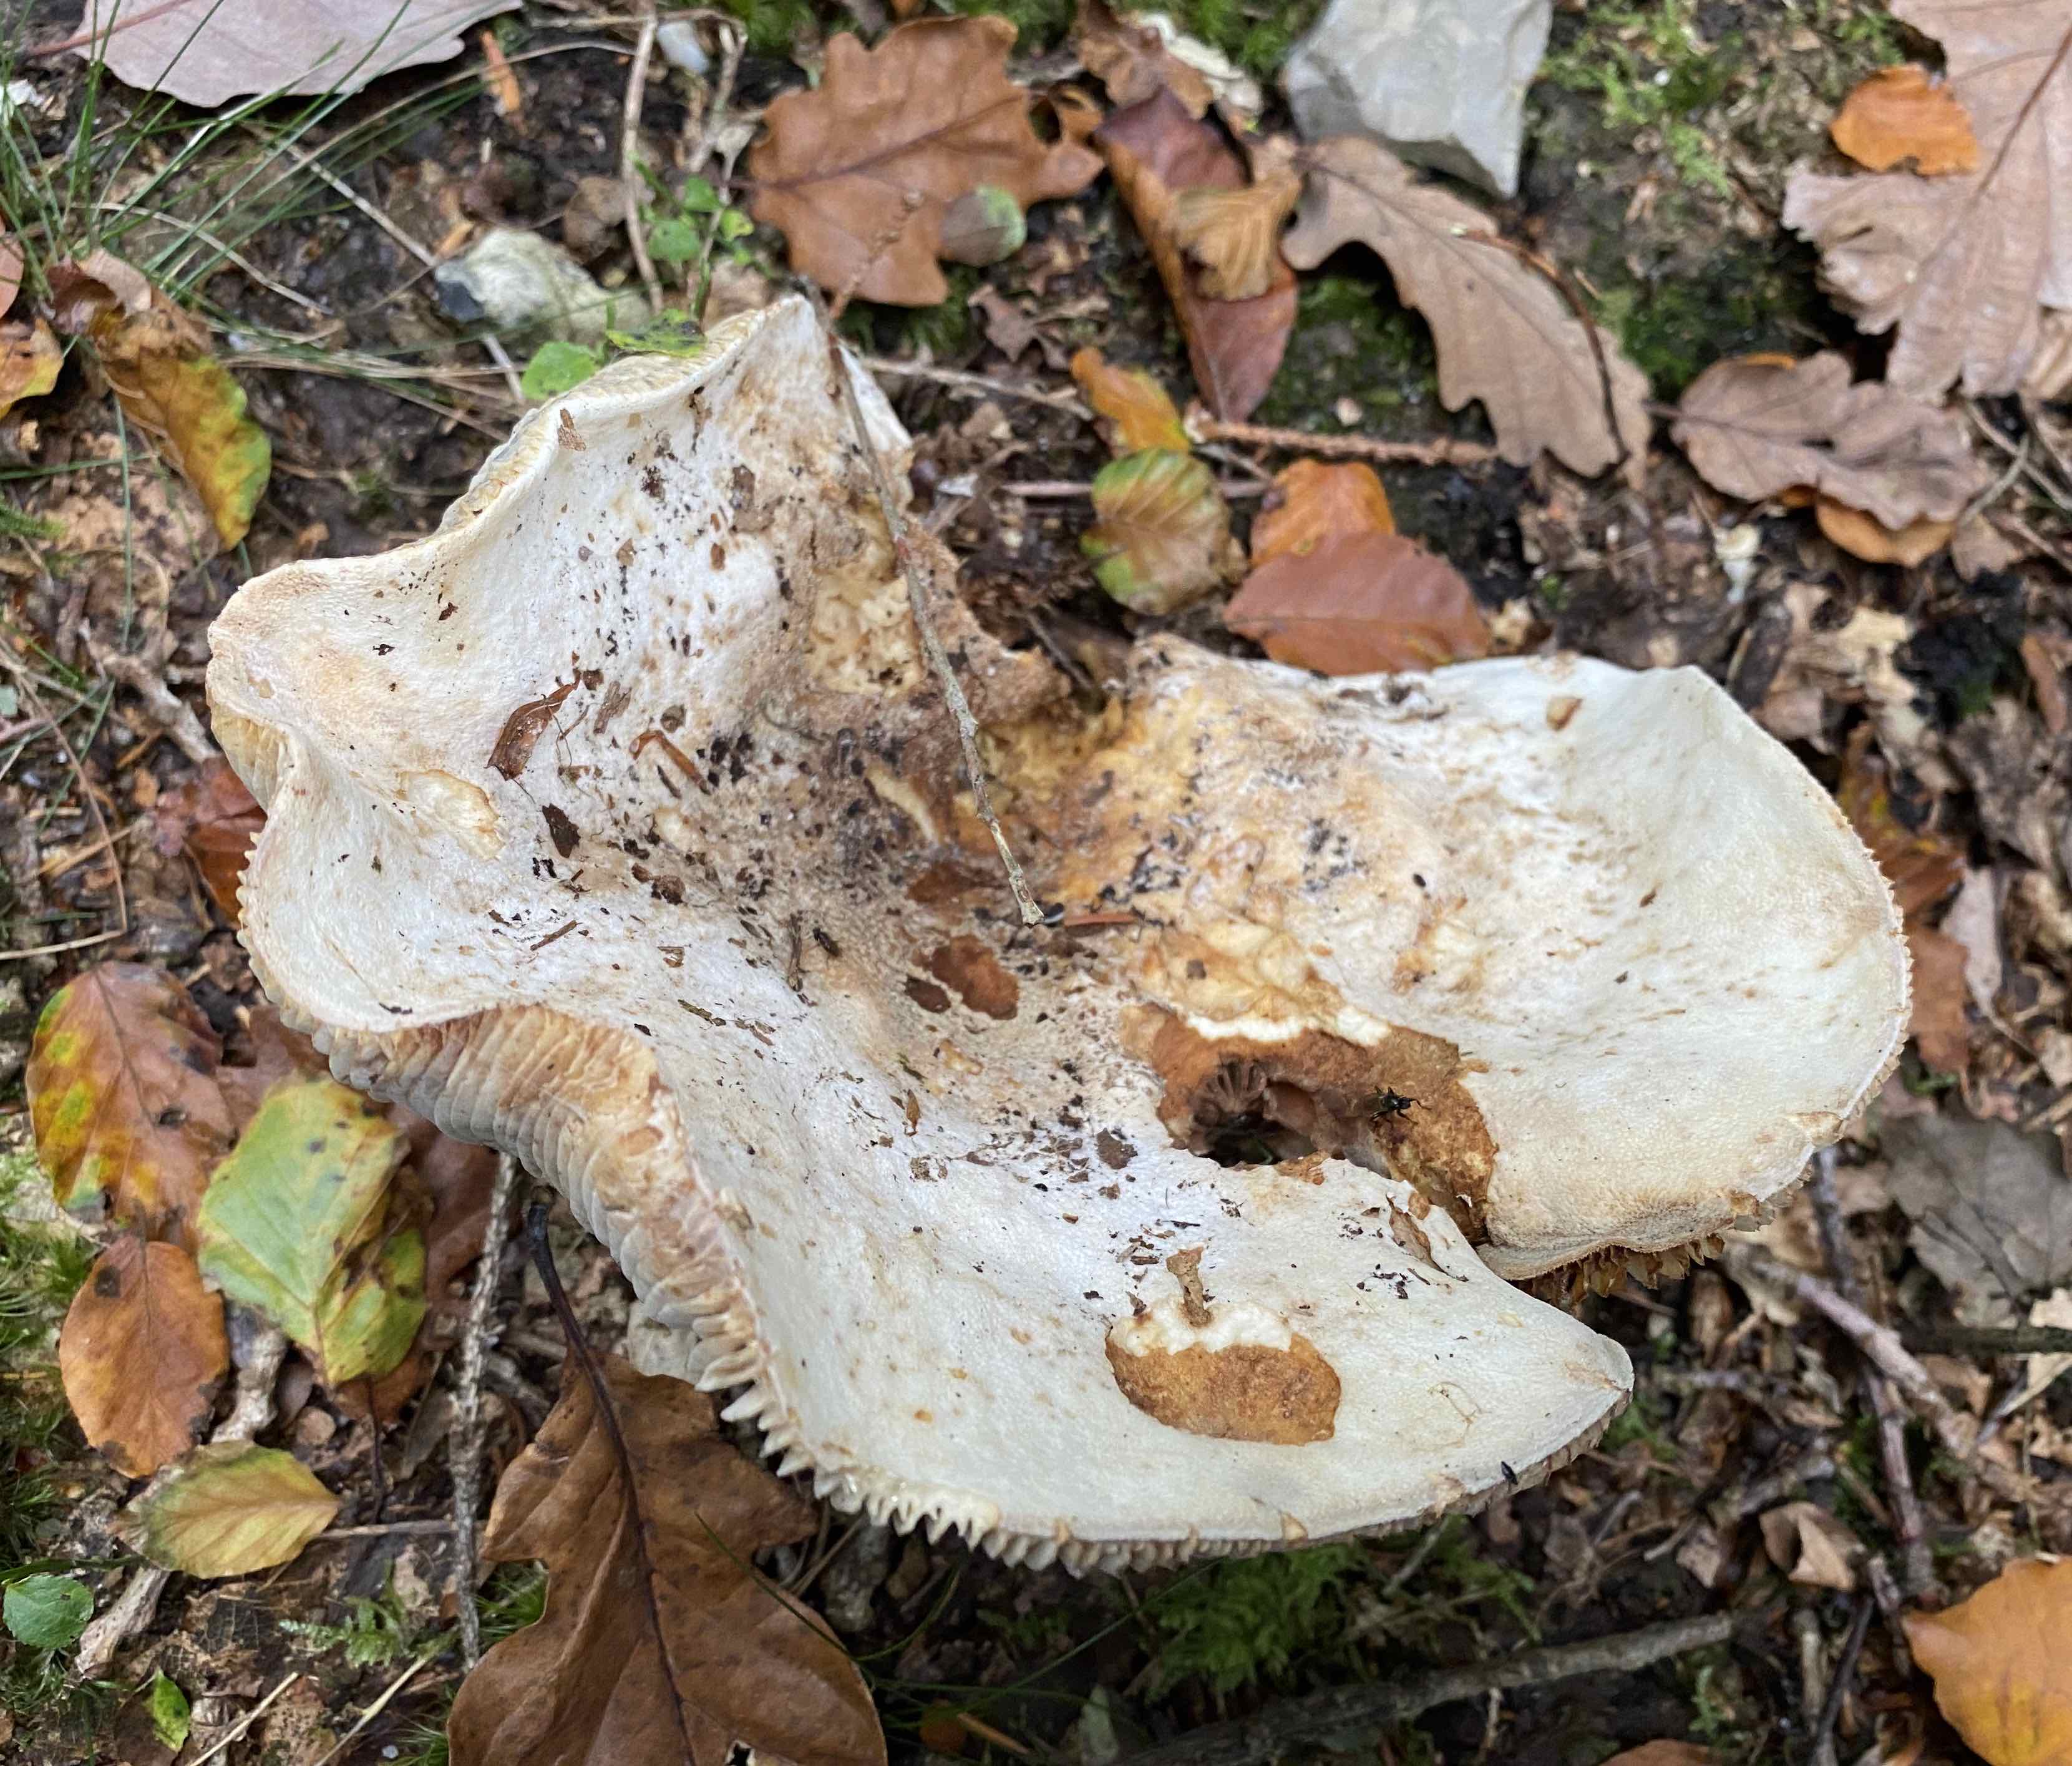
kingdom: Fungi
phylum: Basidiomycota
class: Agaricomycetes
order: Russulales
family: Russulaceae
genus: Lactifluus
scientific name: Lactifluus vellereus
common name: hvidfiltet mælkehat
